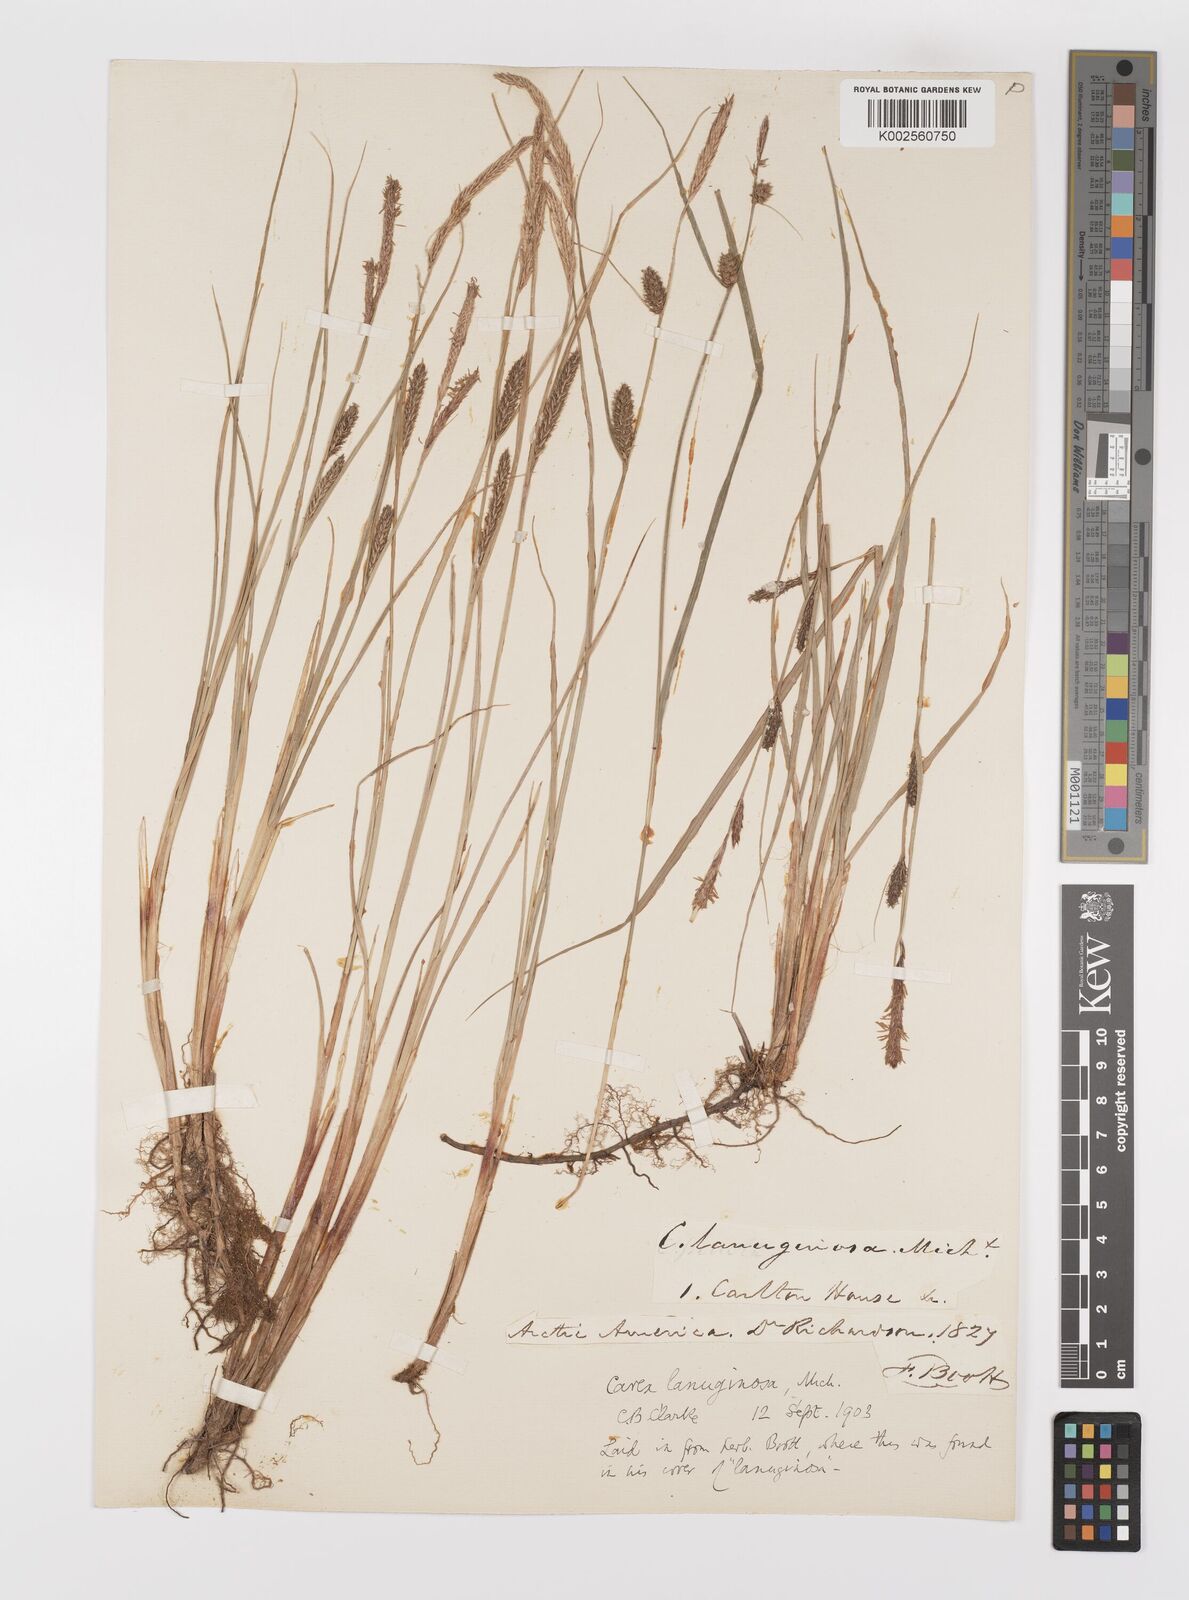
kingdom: Plantae
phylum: Tracheophyta
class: Liliopsida
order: Poales
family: Cyperaceae
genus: Carex
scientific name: Carex lasiocarpa
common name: Slender sedge
